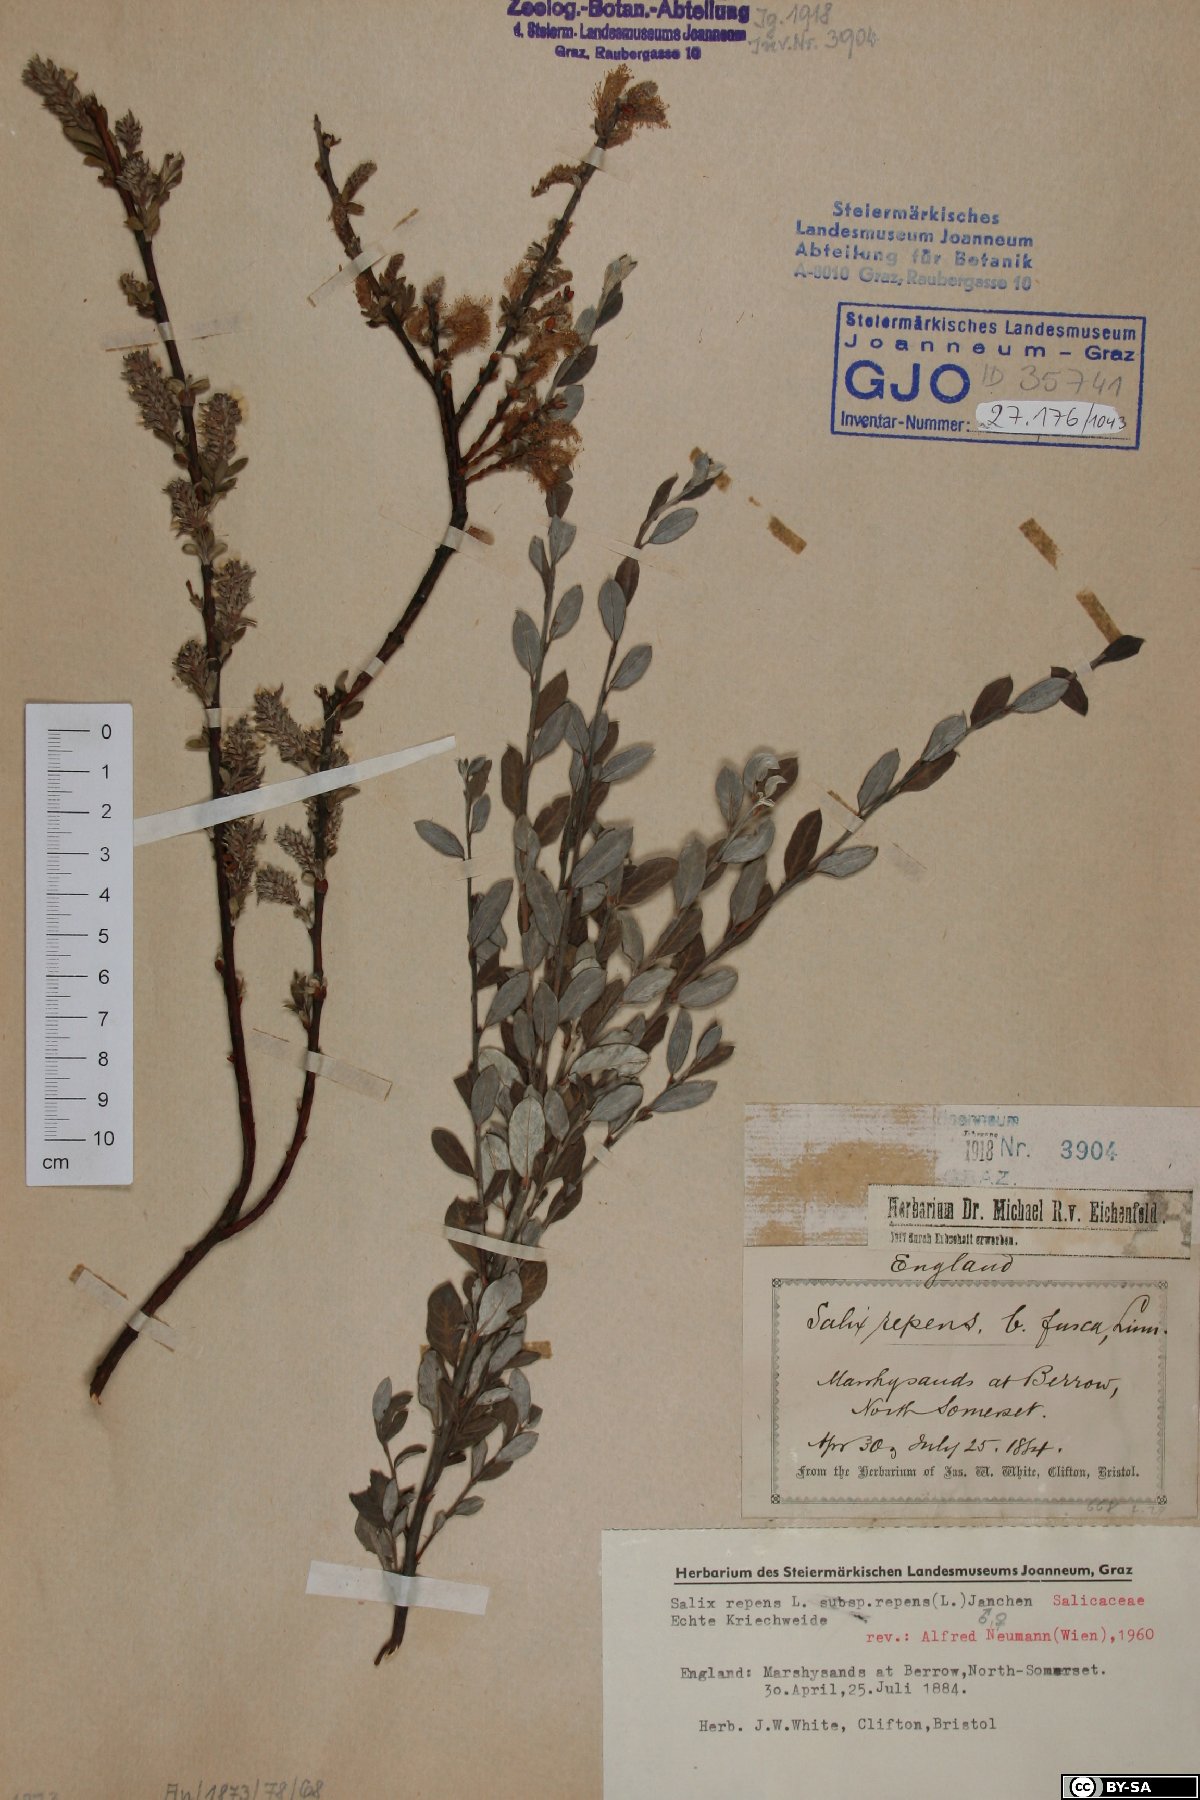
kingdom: Plantae
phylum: Tracheophyta
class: Magnoliopsida
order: Malpighiales
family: Salicaceae
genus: Salix
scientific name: Salix repens
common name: Creeping willow
